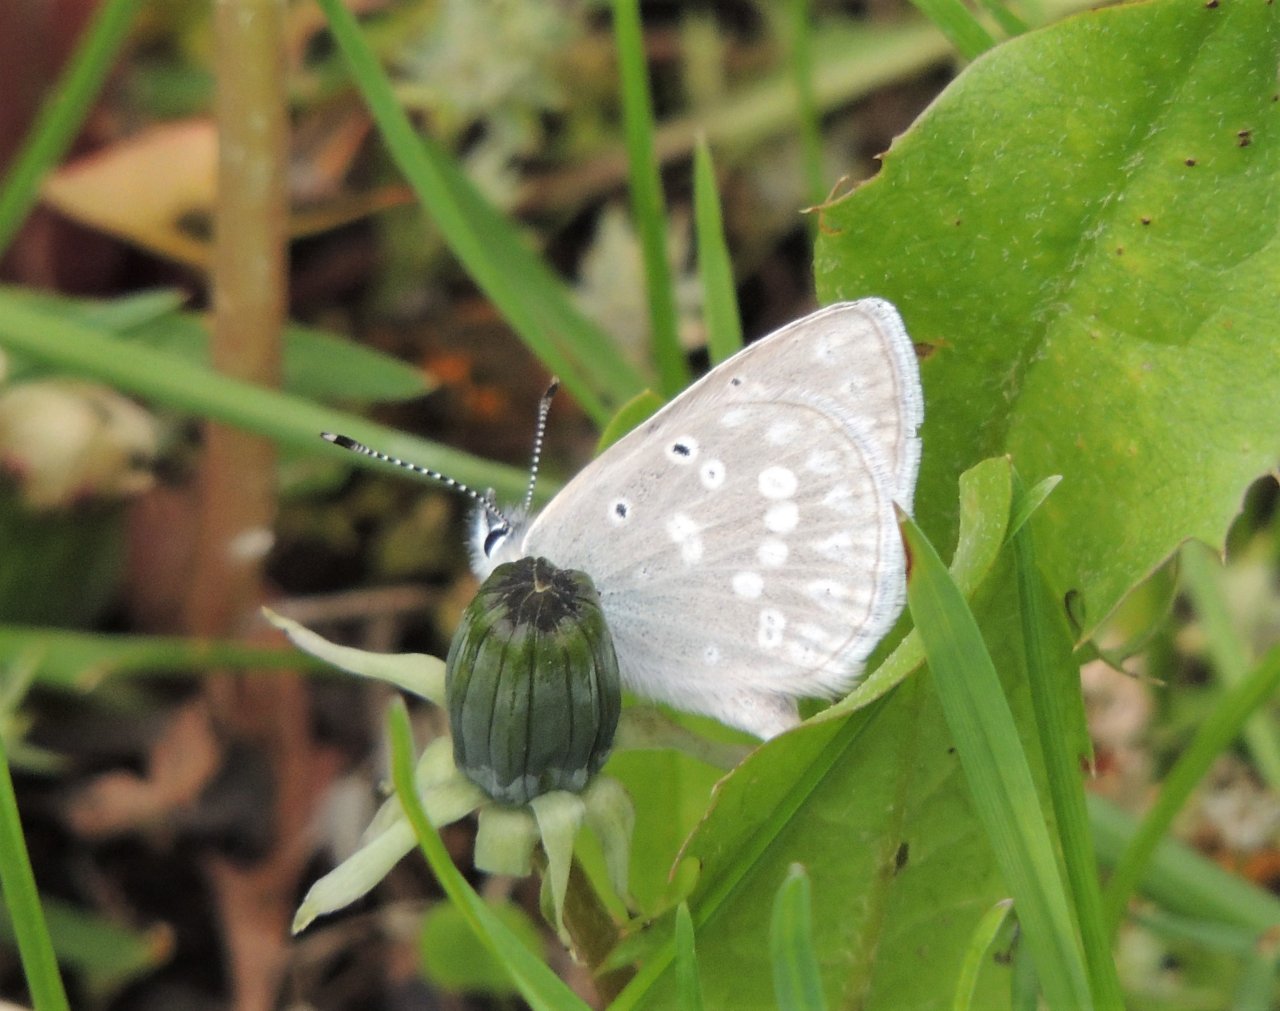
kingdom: Animalia
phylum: Arthropoda
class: Insecta
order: Lepidoptera
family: Lycaenidae
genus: Icaricia
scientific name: Icaricia icarioides
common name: Boisduval's Blue
